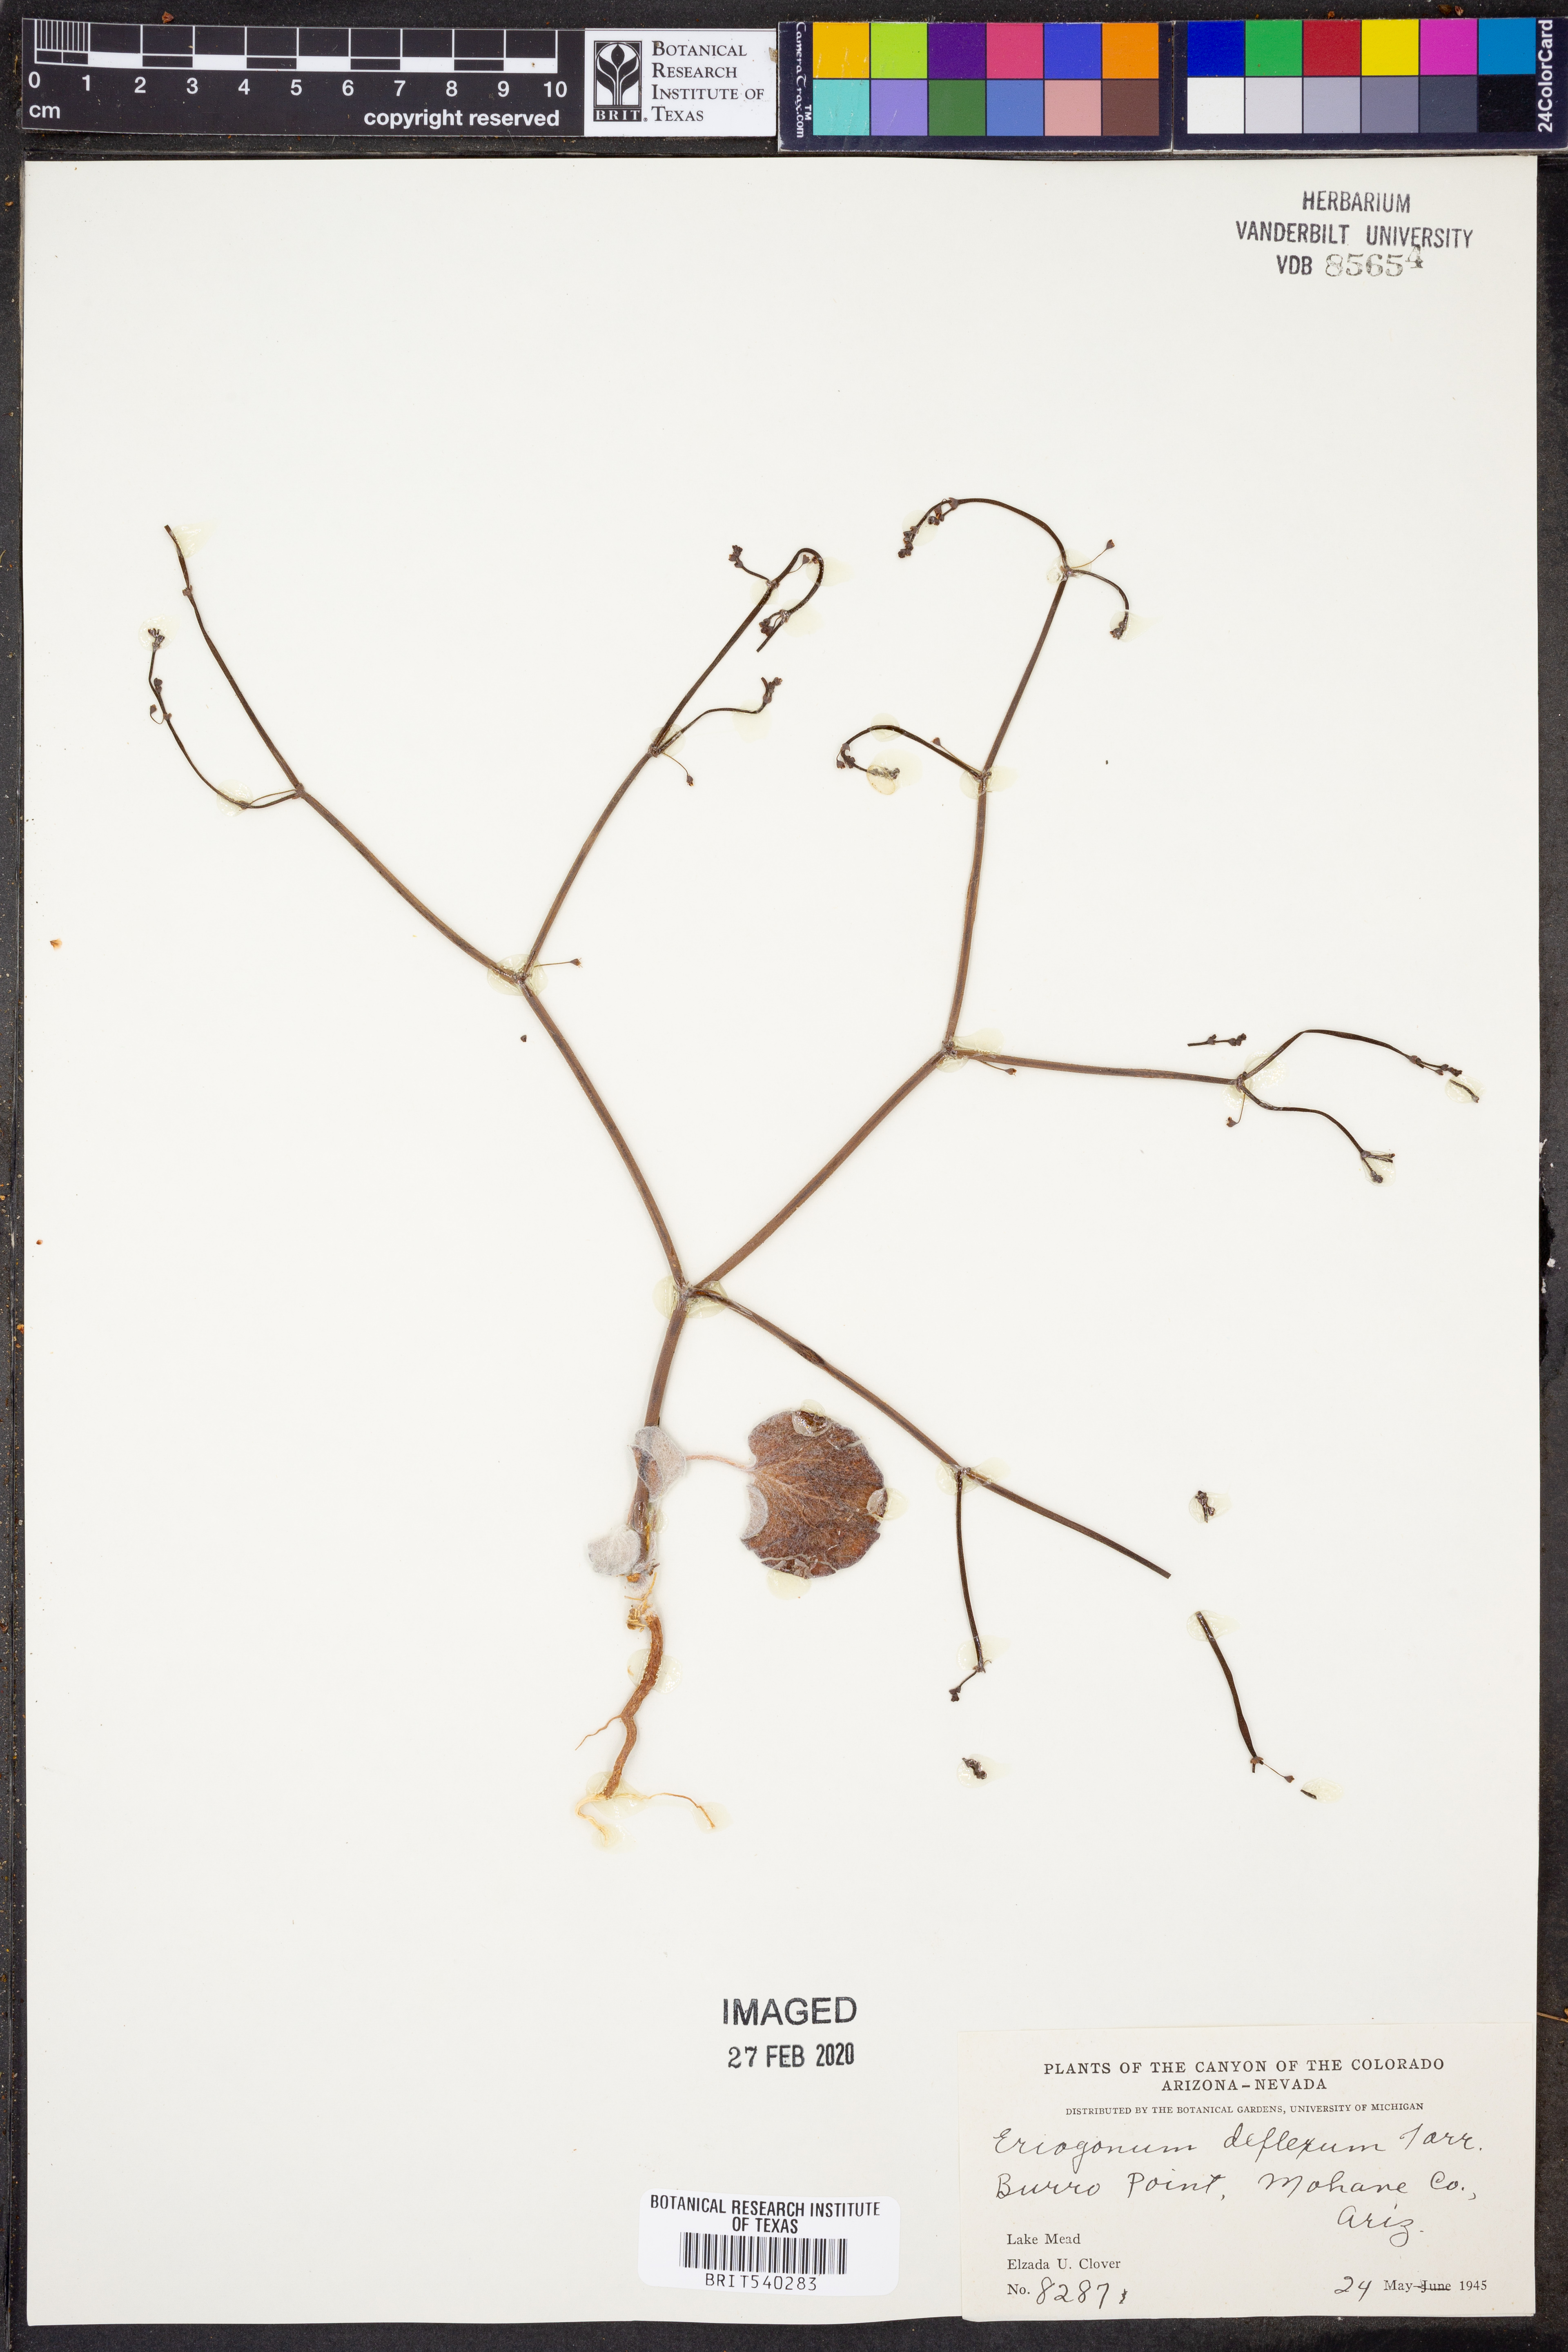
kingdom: Plantae
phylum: Tracheophyta
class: Magnoliopsida
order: Caryophyllales
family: Polygonaceae
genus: Eriogonum
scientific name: Eriogonum deflexum
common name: Skeleton-weed
